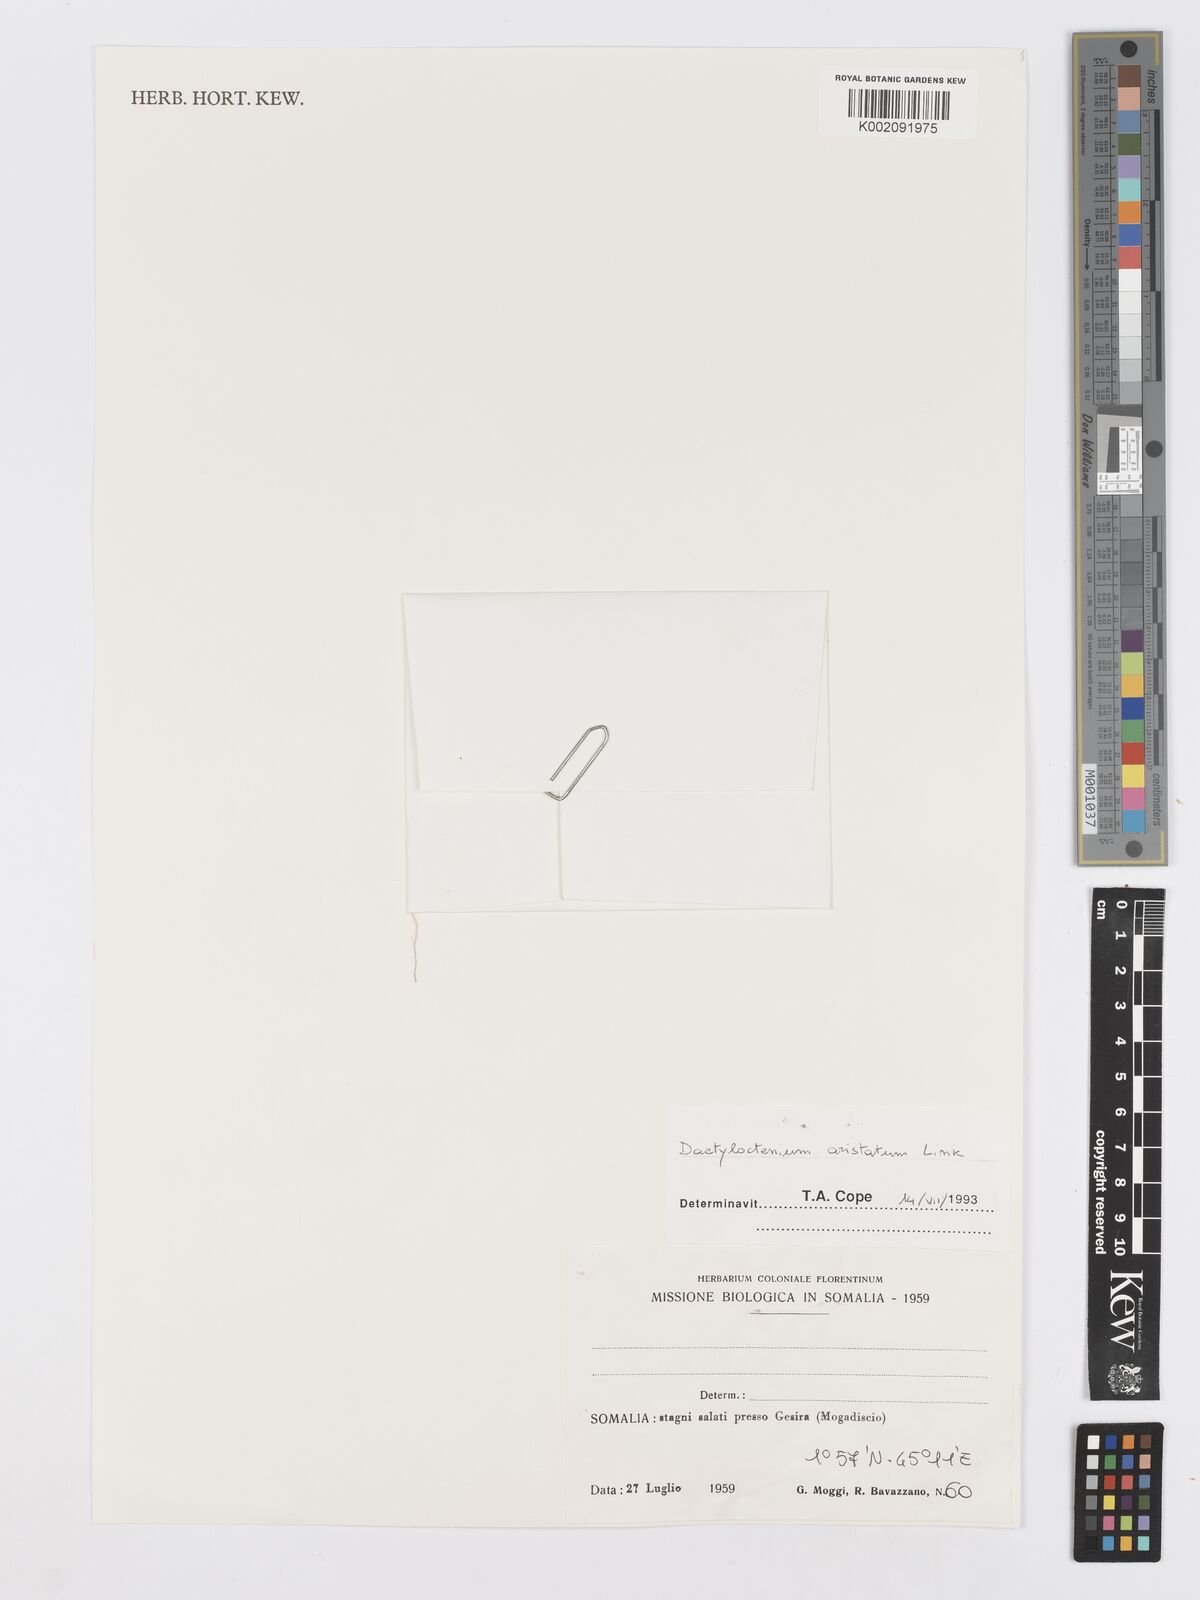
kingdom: Plantae
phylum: Tracheophyta
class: Liliopsida
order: Poales
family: Poaceae
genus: Dactyloctenium
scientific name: Dactyloctenium aristatum
